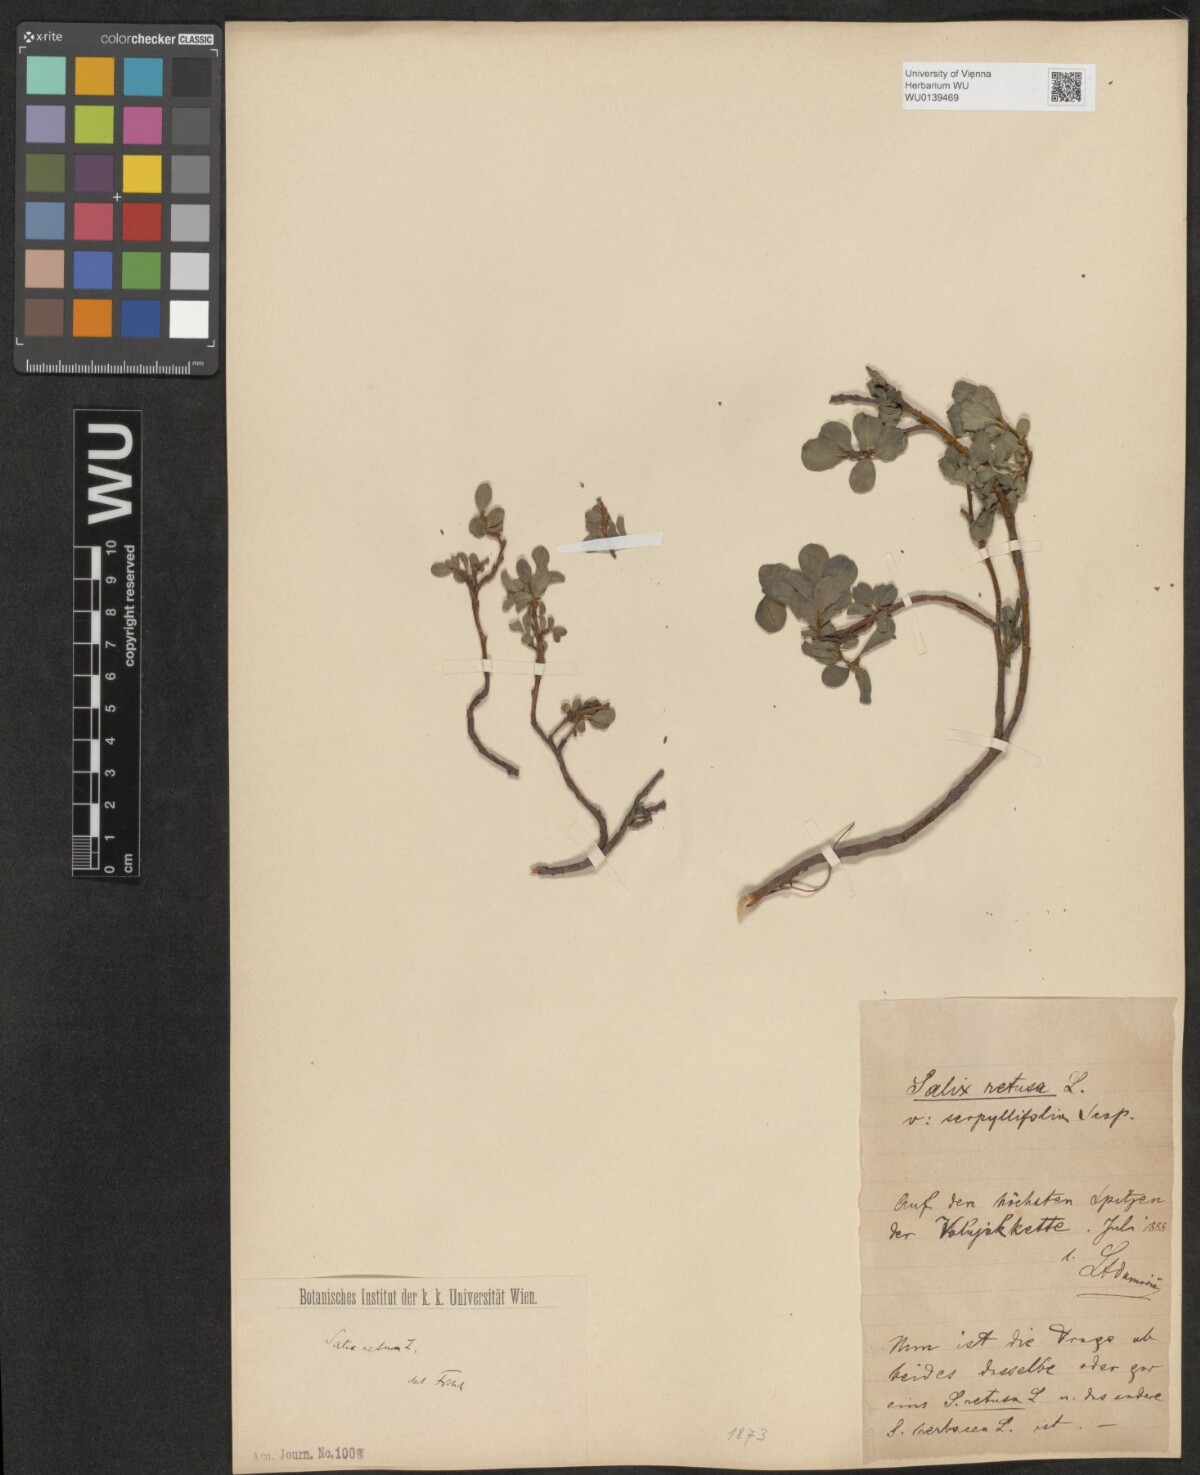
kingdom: Plantae
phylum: Tracheophyta
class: Magnoliopsida
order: Malpighiales
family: Salicaceae
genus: Salix
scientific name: Salix retusa
